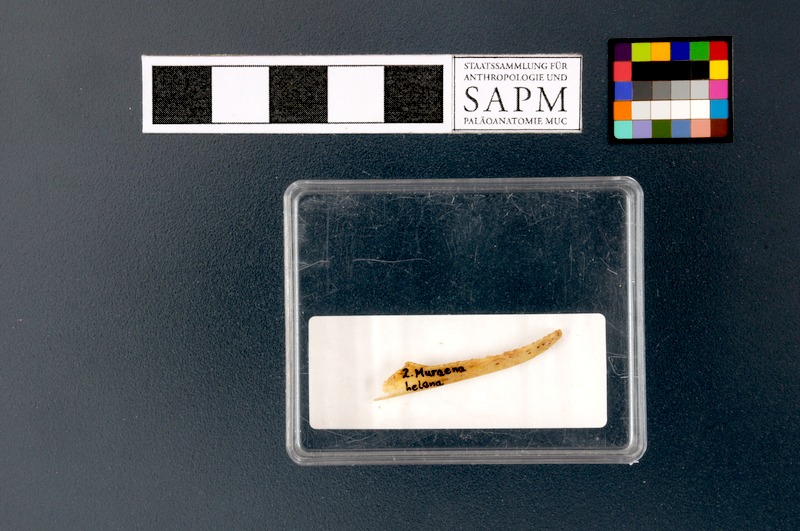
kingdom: Animalia
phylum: Chordata
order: Anguilliformes
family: Muraenidae
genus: Muraena
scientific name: Muraena helena
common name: Mediterranean moray
